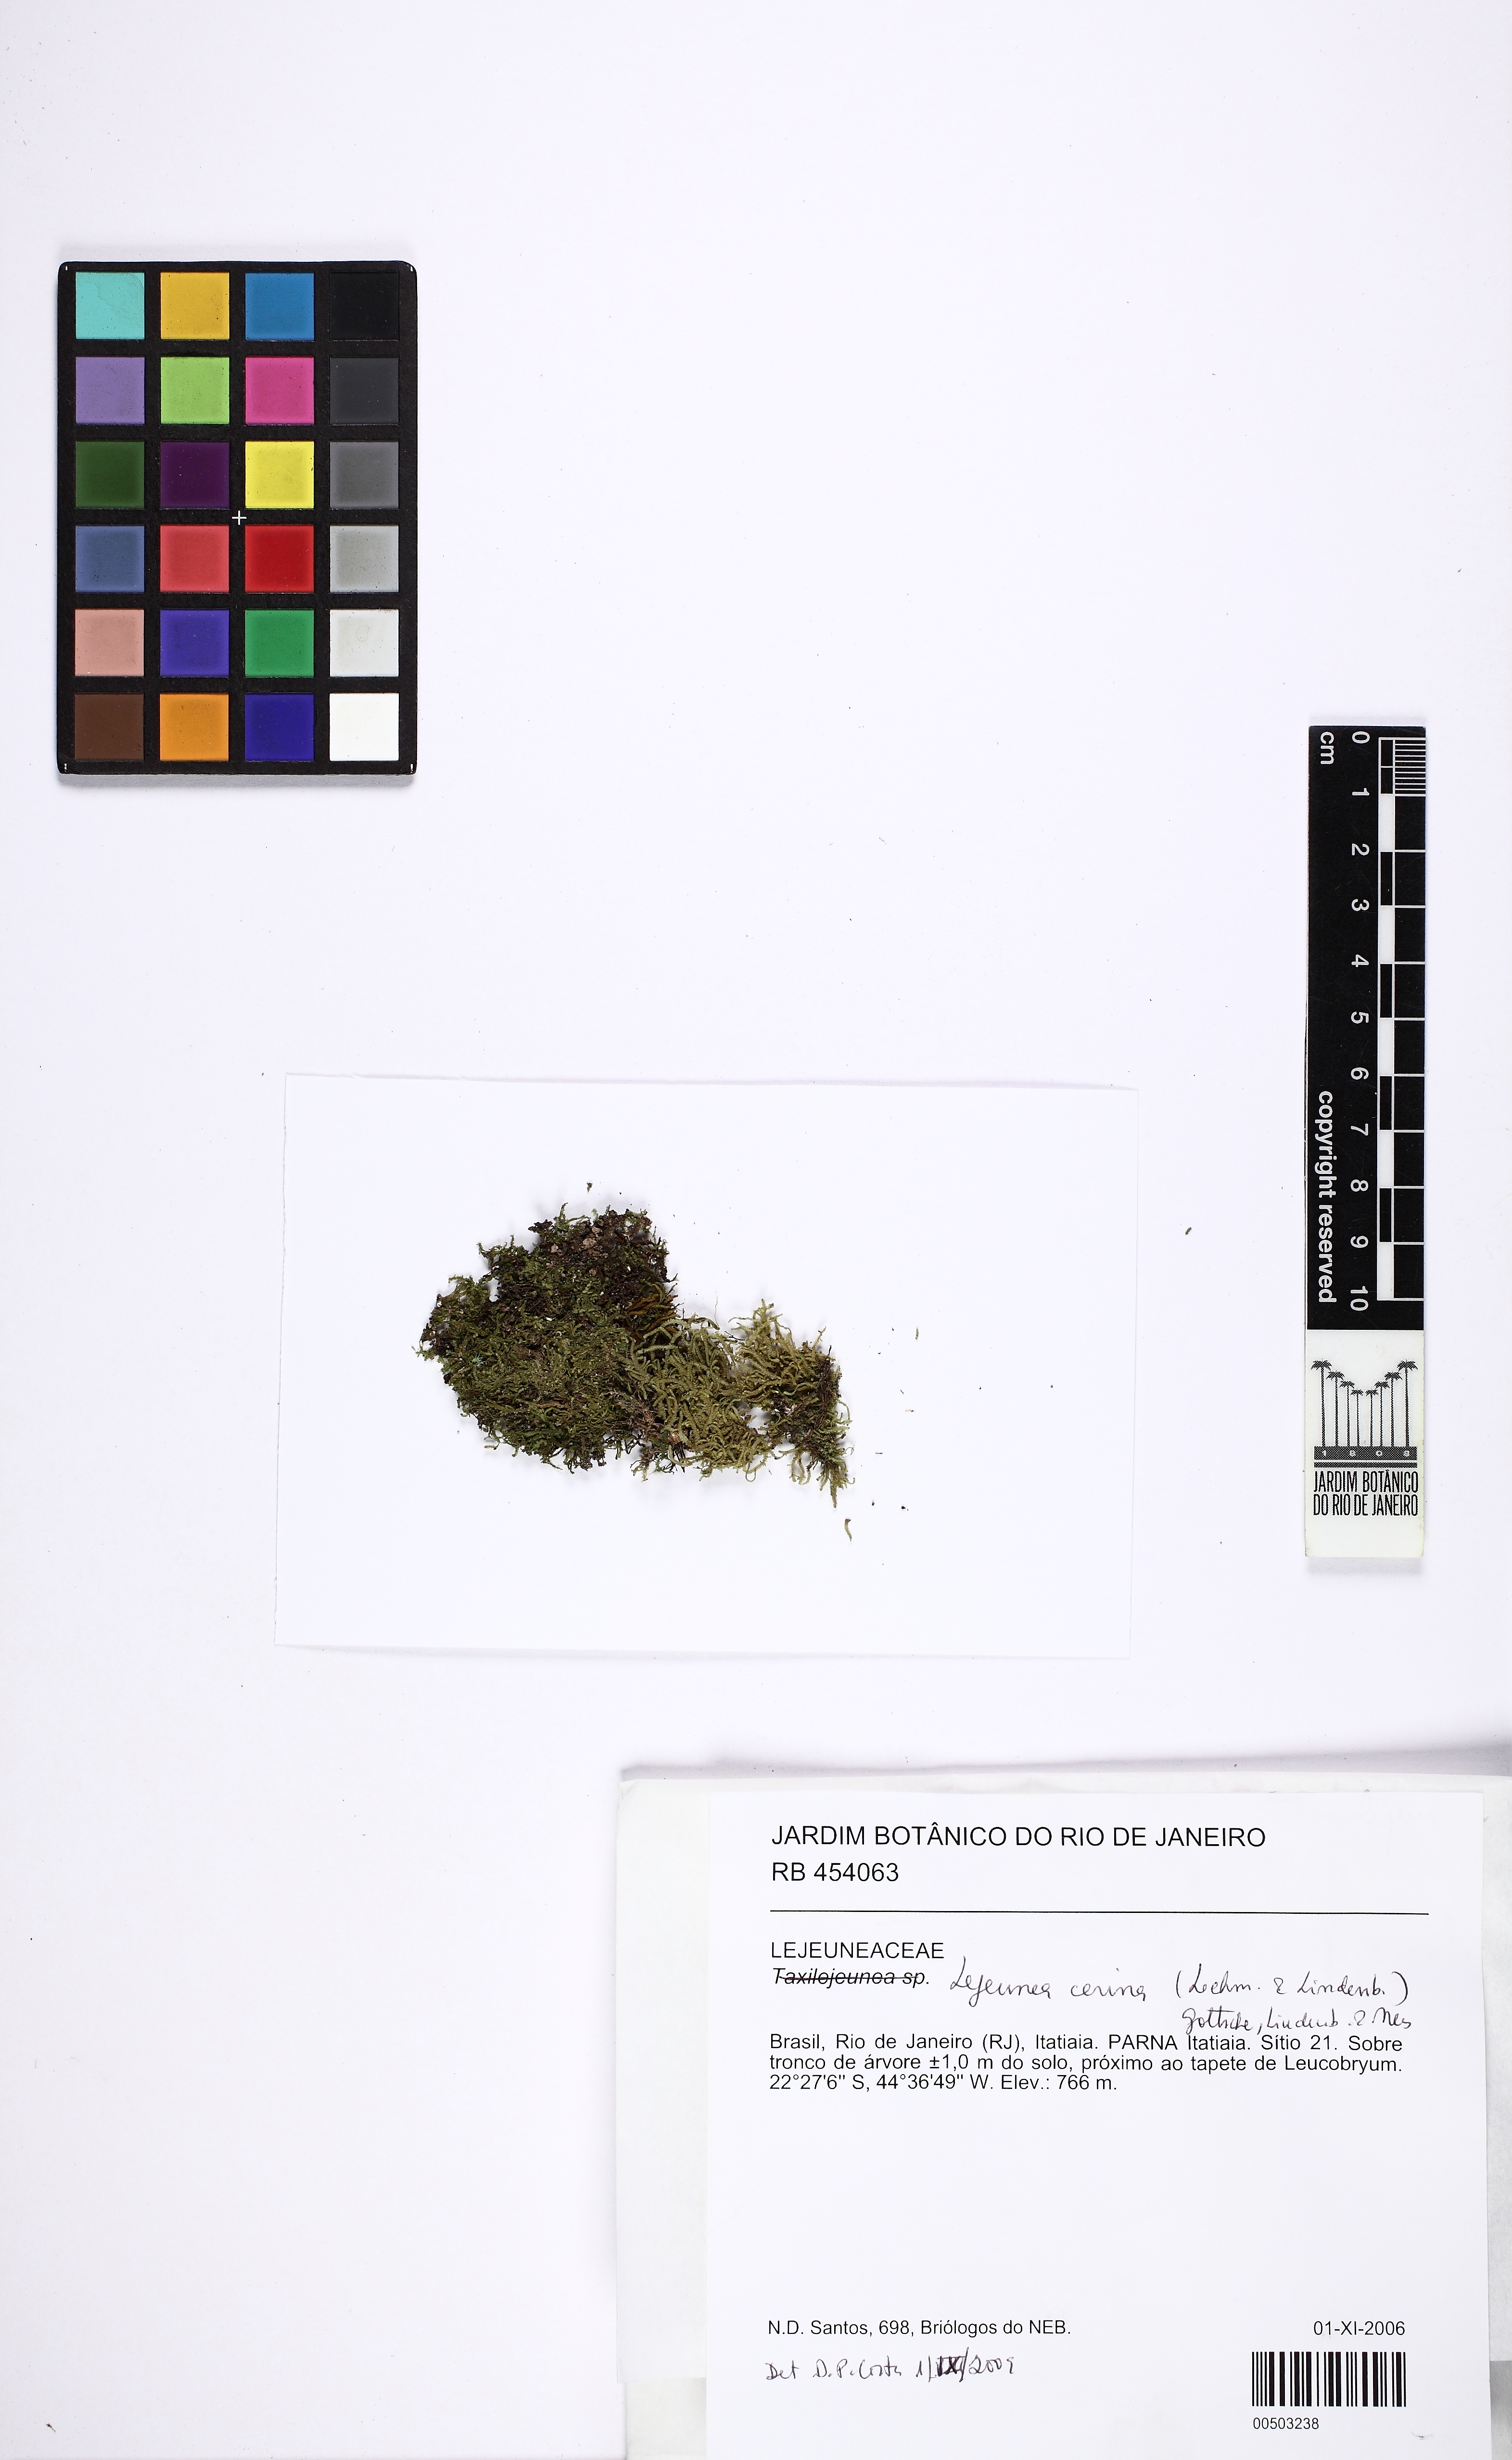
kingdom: Plantae
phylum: Marchantiophyta
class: Jungermanniopsida
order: Porellales
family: Lejeuneaceae
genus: Lejeunea
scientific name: Lejeunea cerina
